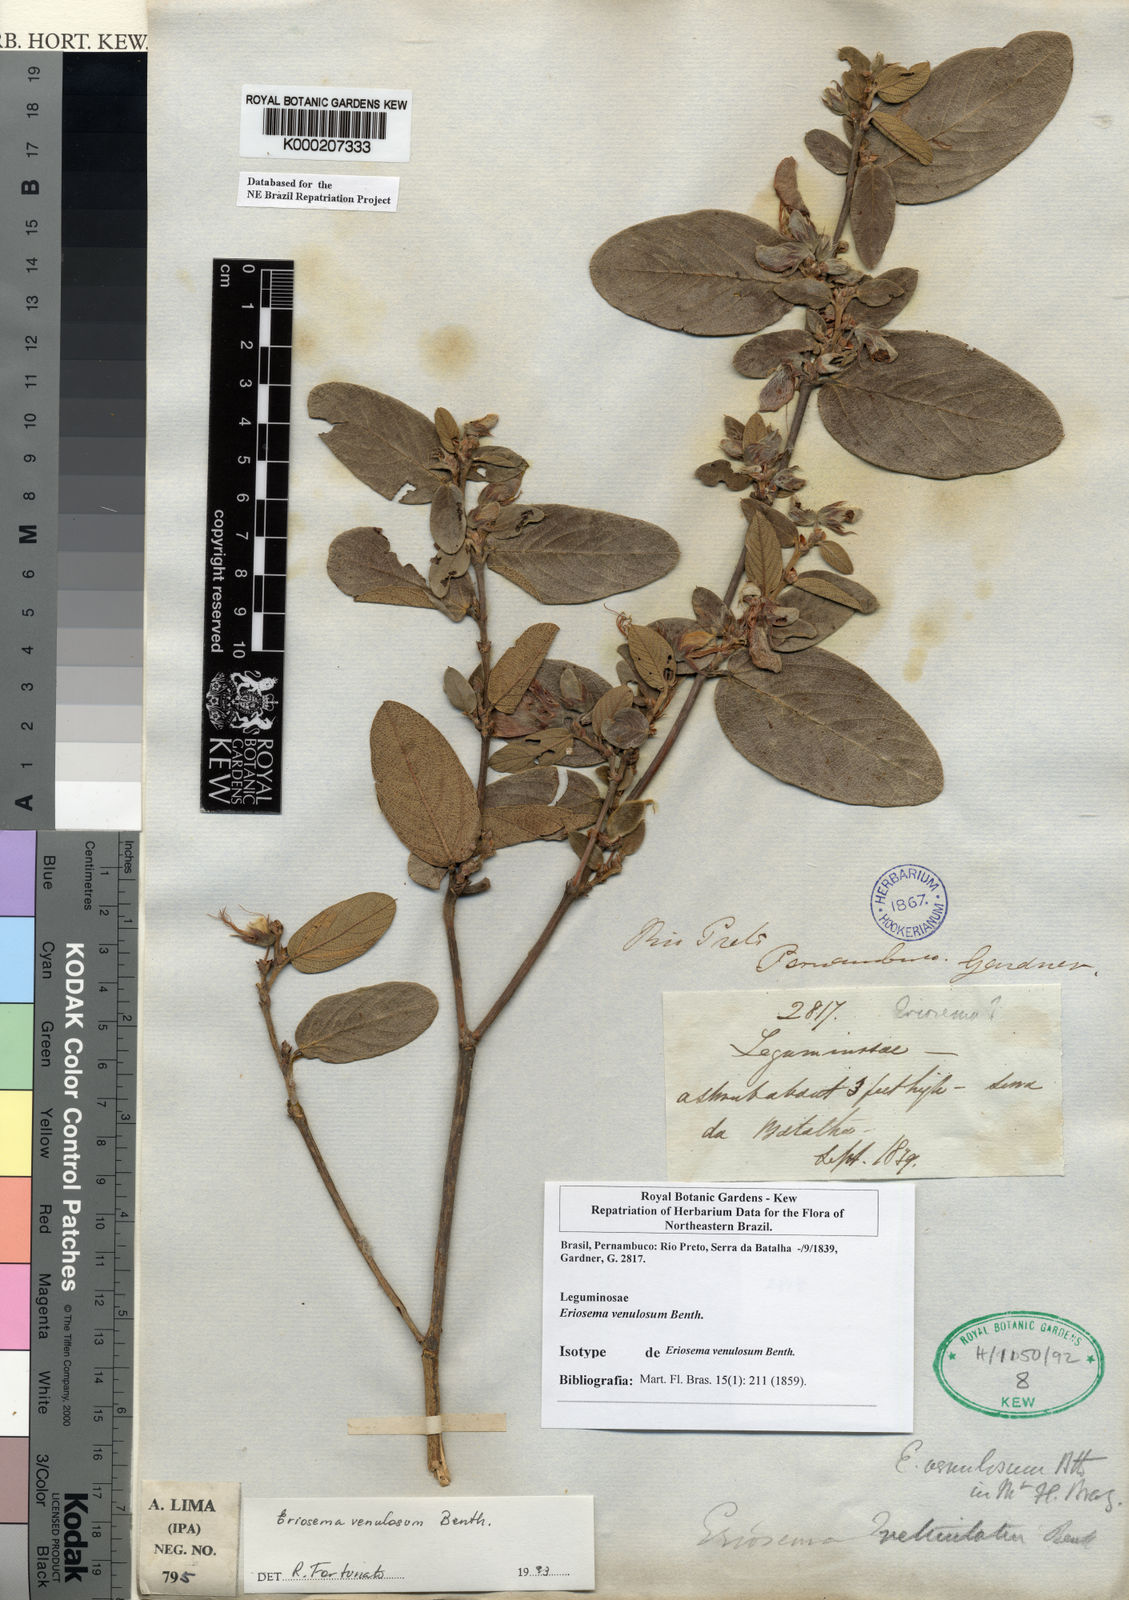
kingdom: Plantae
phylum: Tracheophyta
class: Magnoliopsida
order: Fabales
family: Fabaceae
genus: Eriosema
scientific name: Eriosema venulosum
